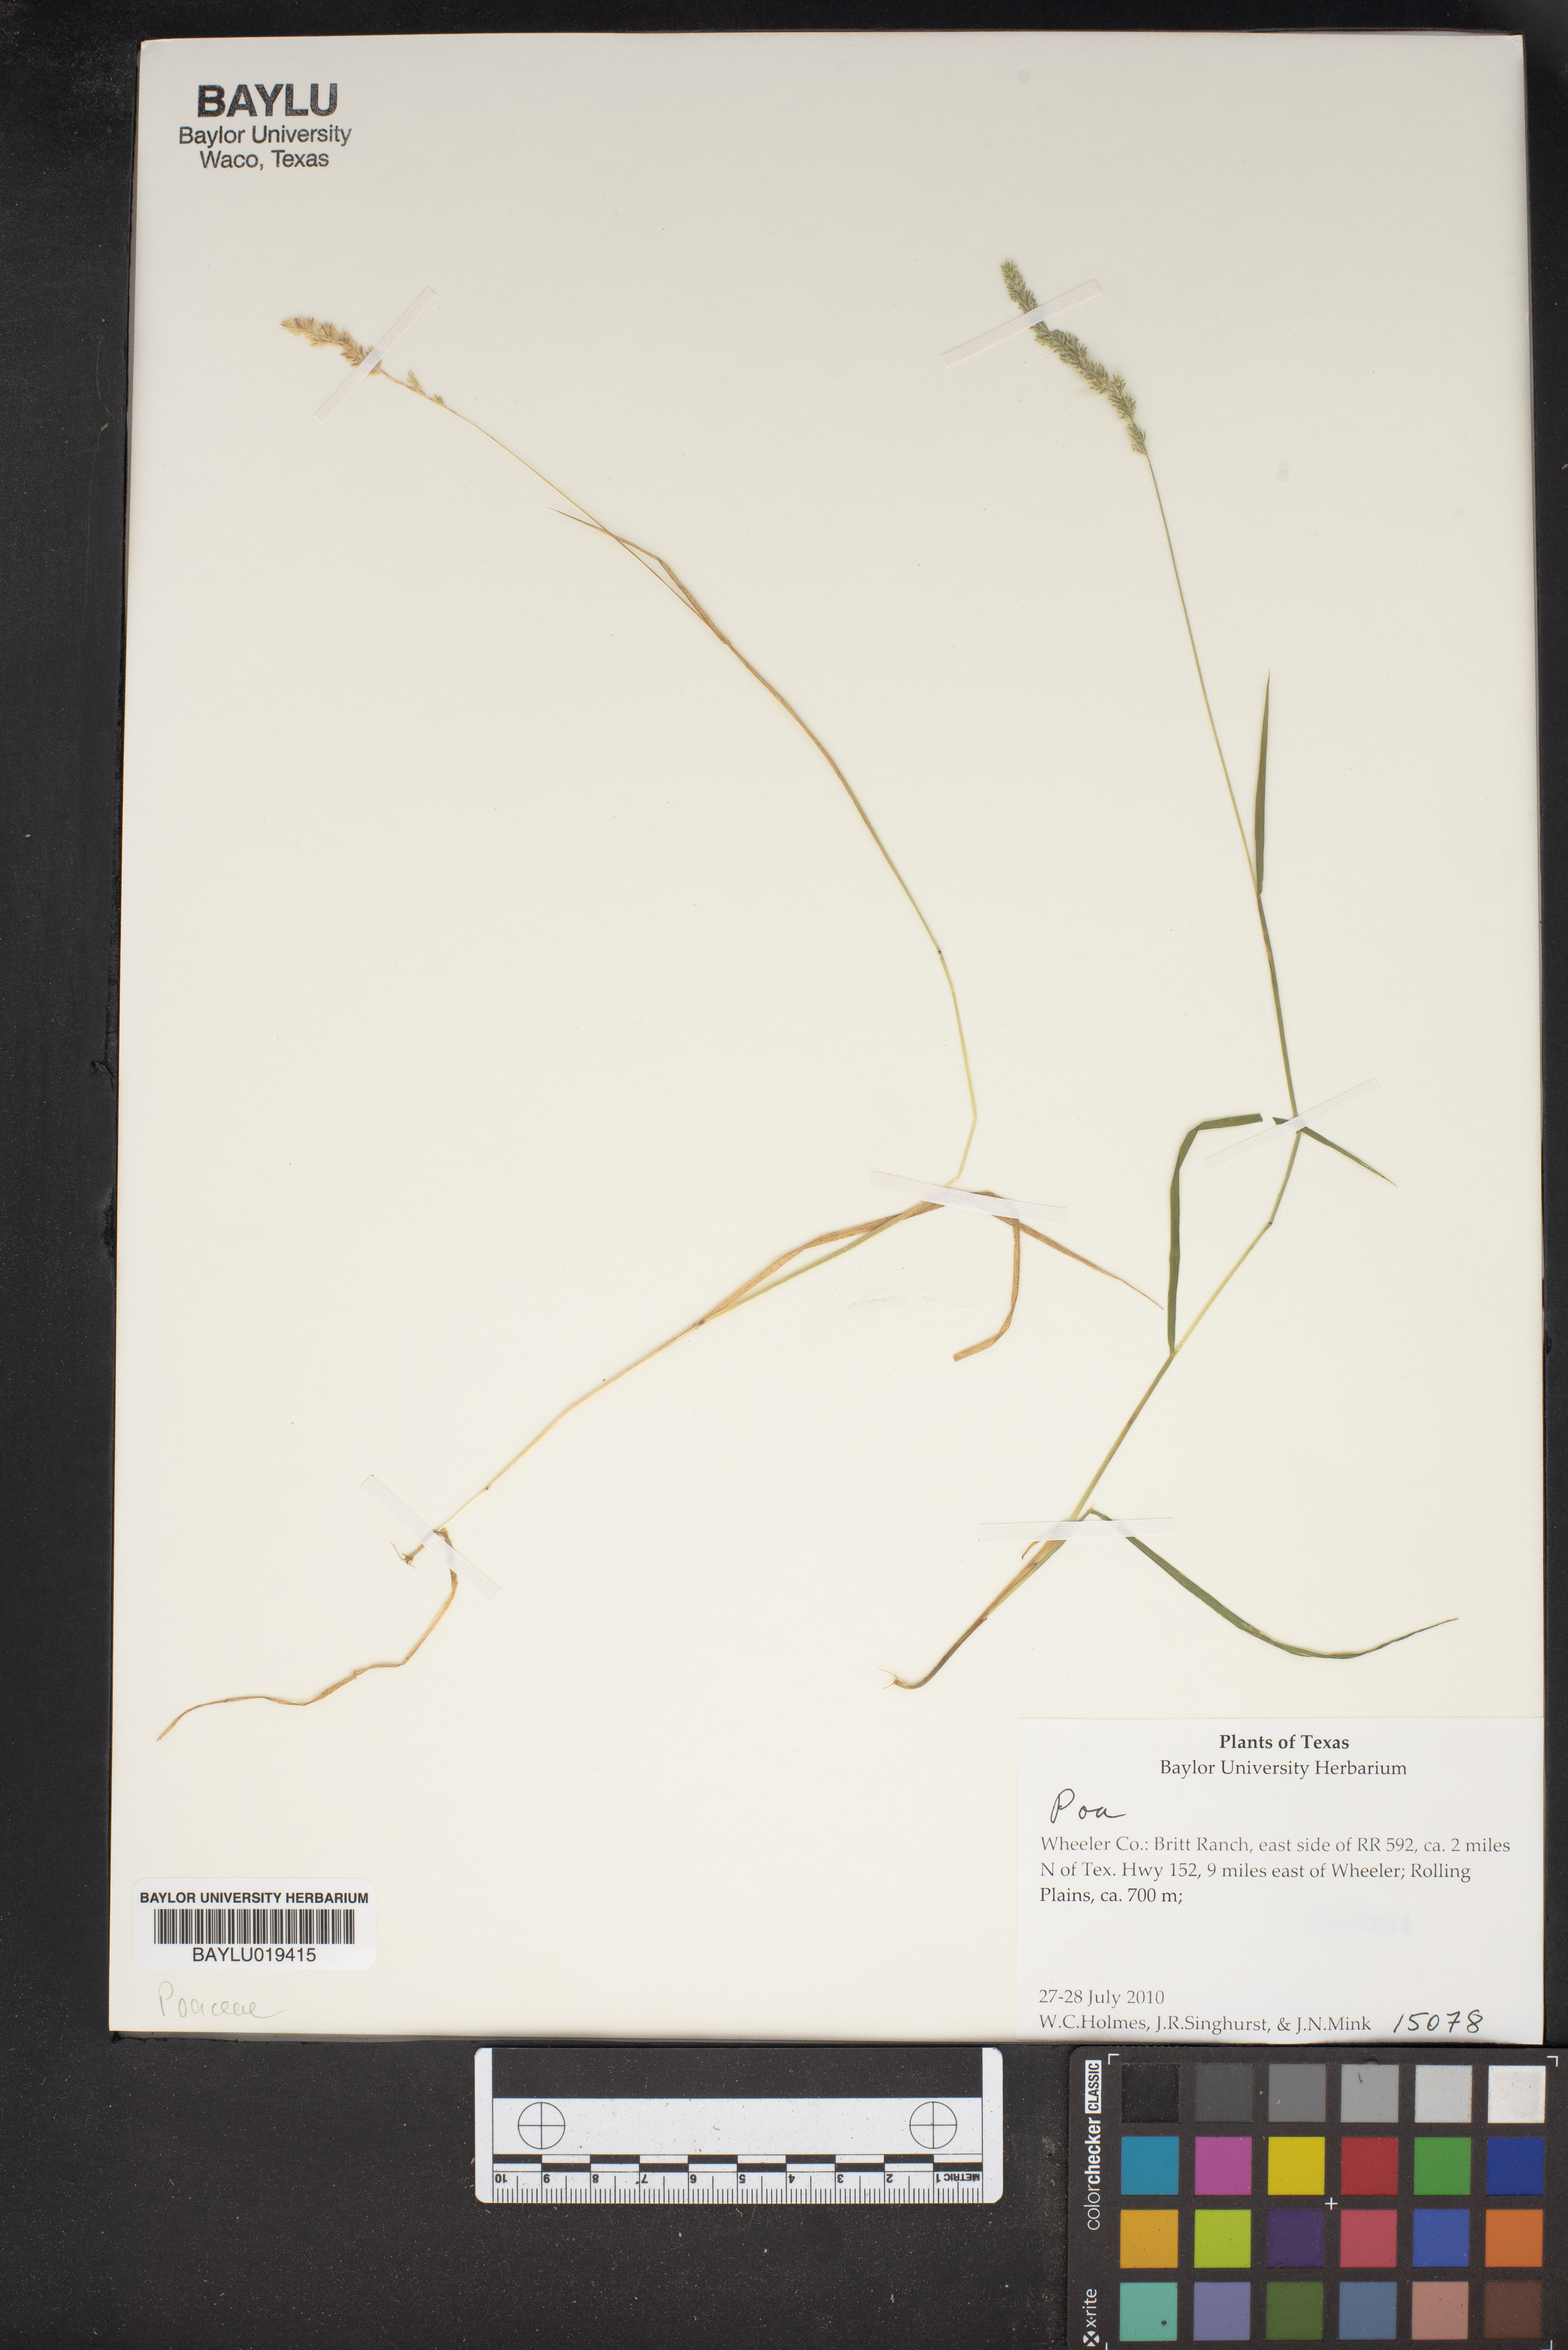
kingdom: Plantae
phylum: Tracheophyta
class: Liliopsida
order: Poales
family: Poaceae
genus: Poa
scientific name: Poa
